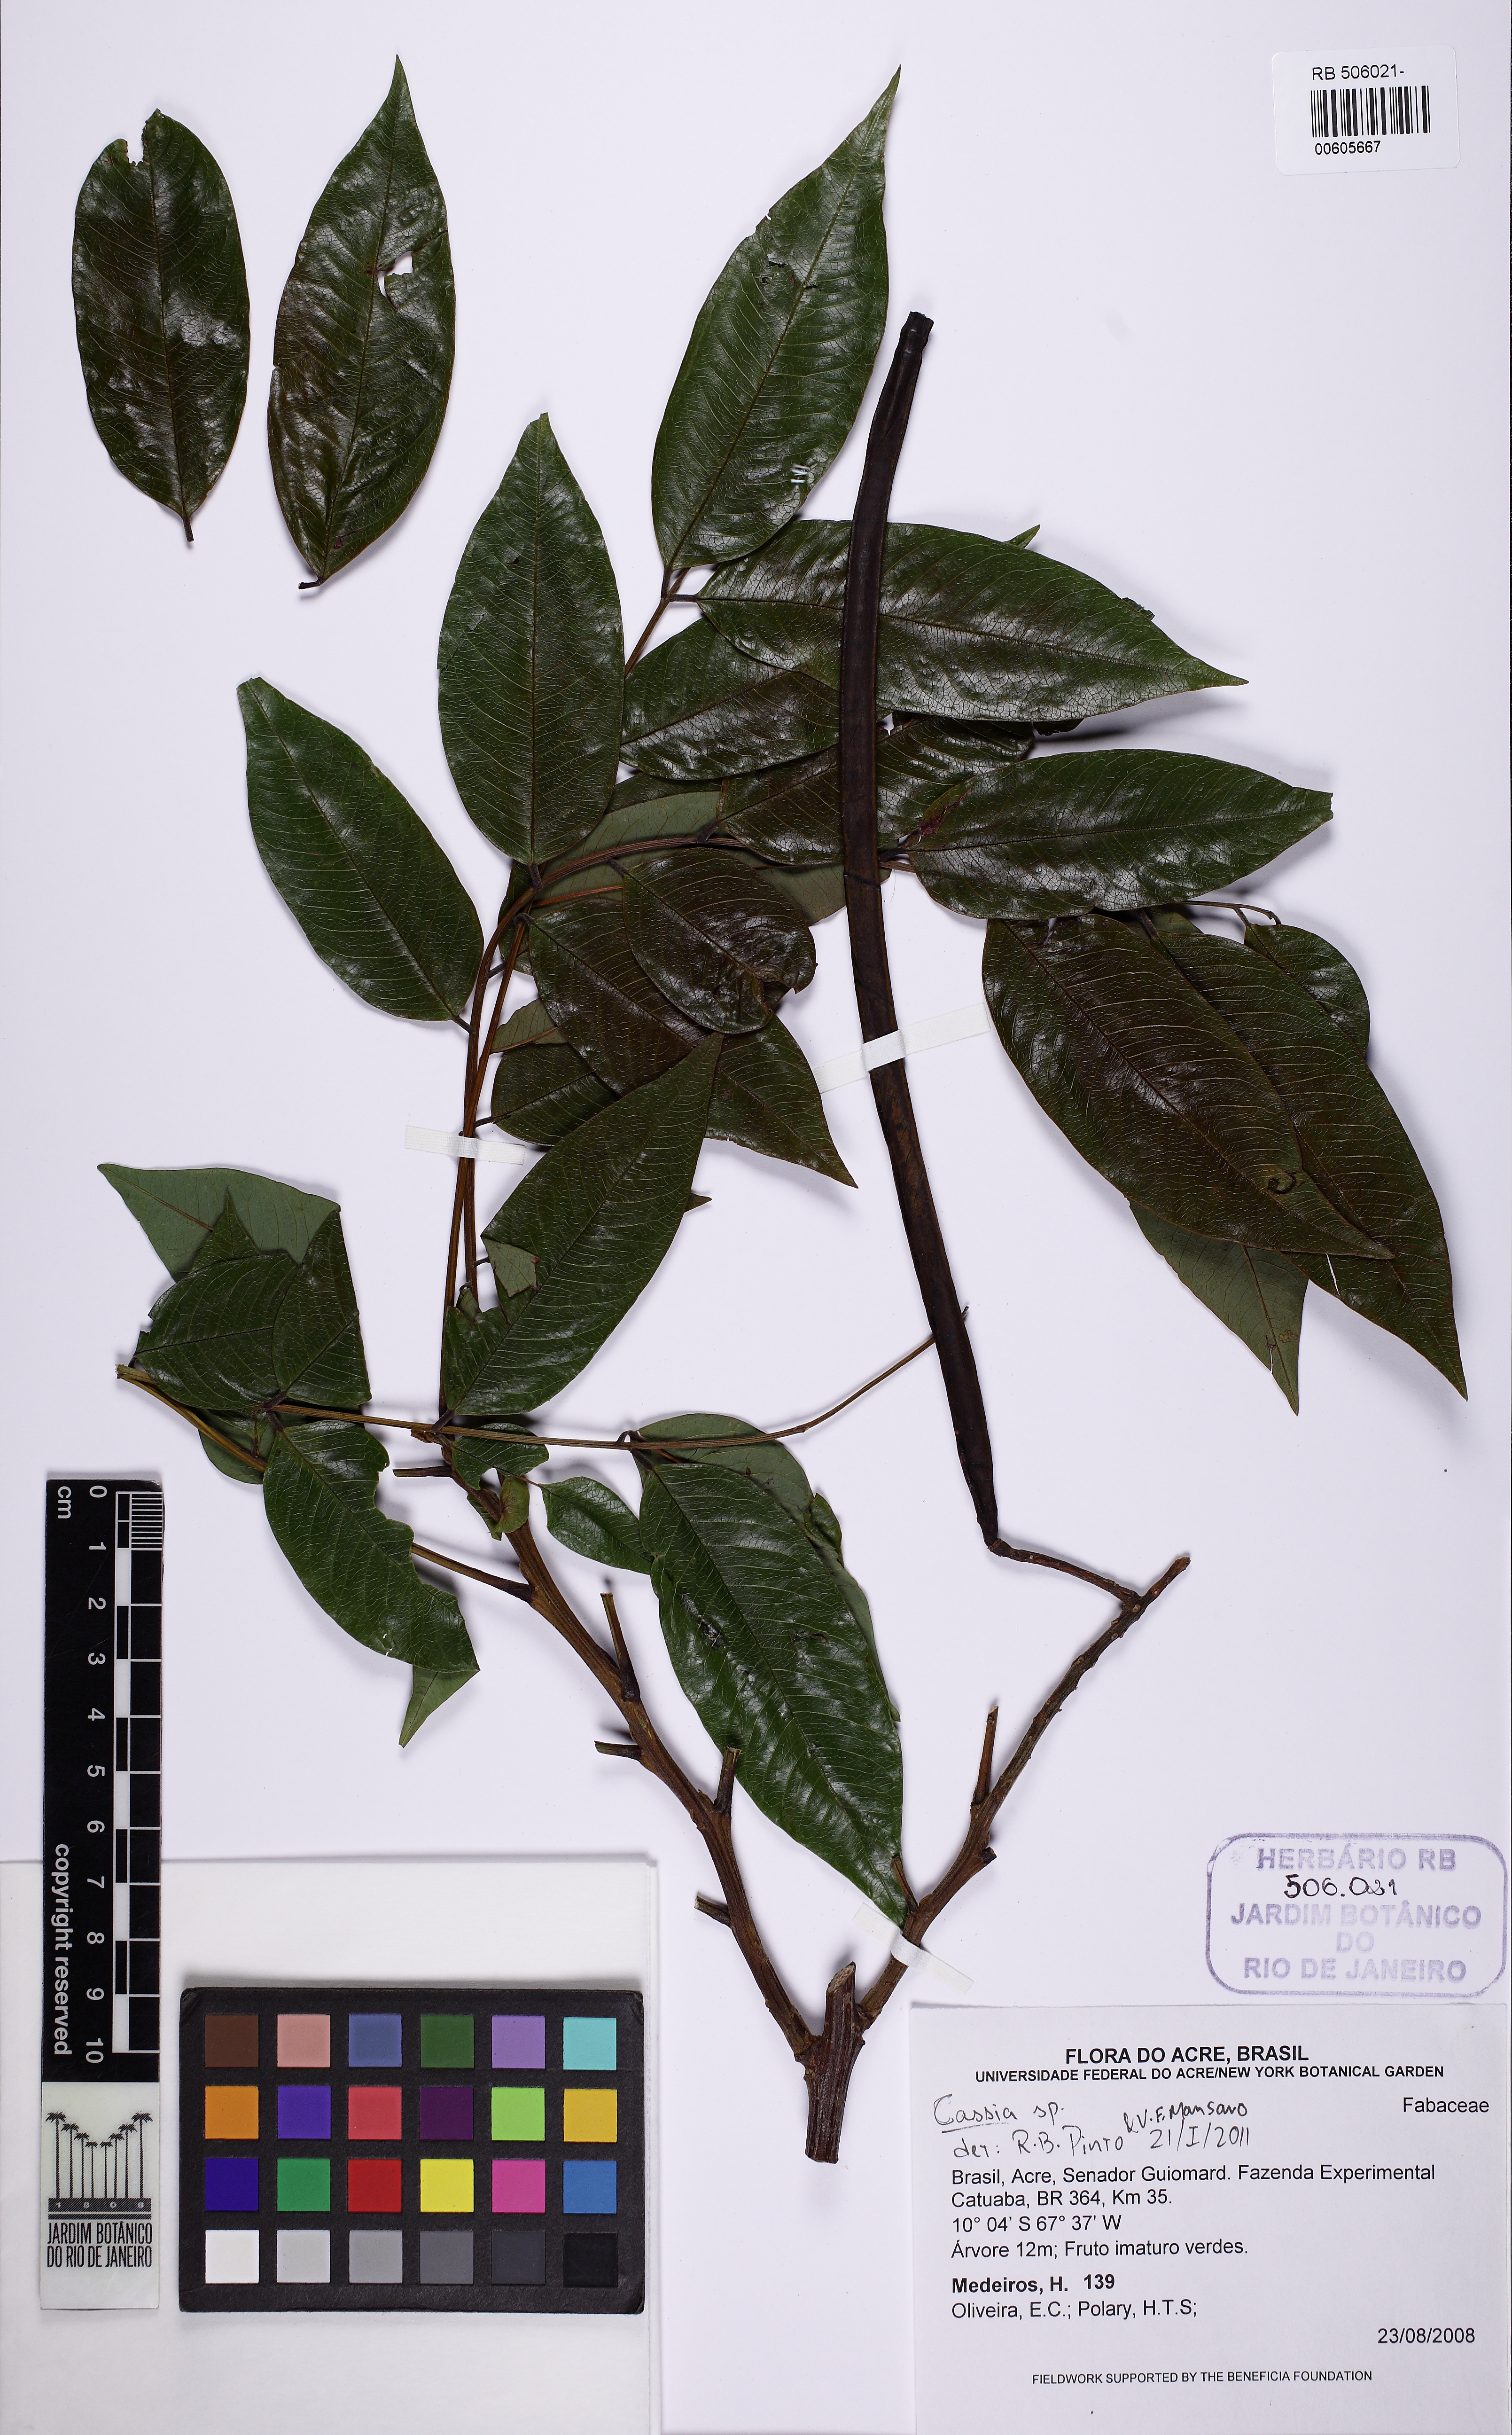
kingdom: Plantae
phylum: Tracheophyta
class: Magnoliopsida
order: Fabales
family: Fabaceae
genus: Cassia
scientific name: Cassia
